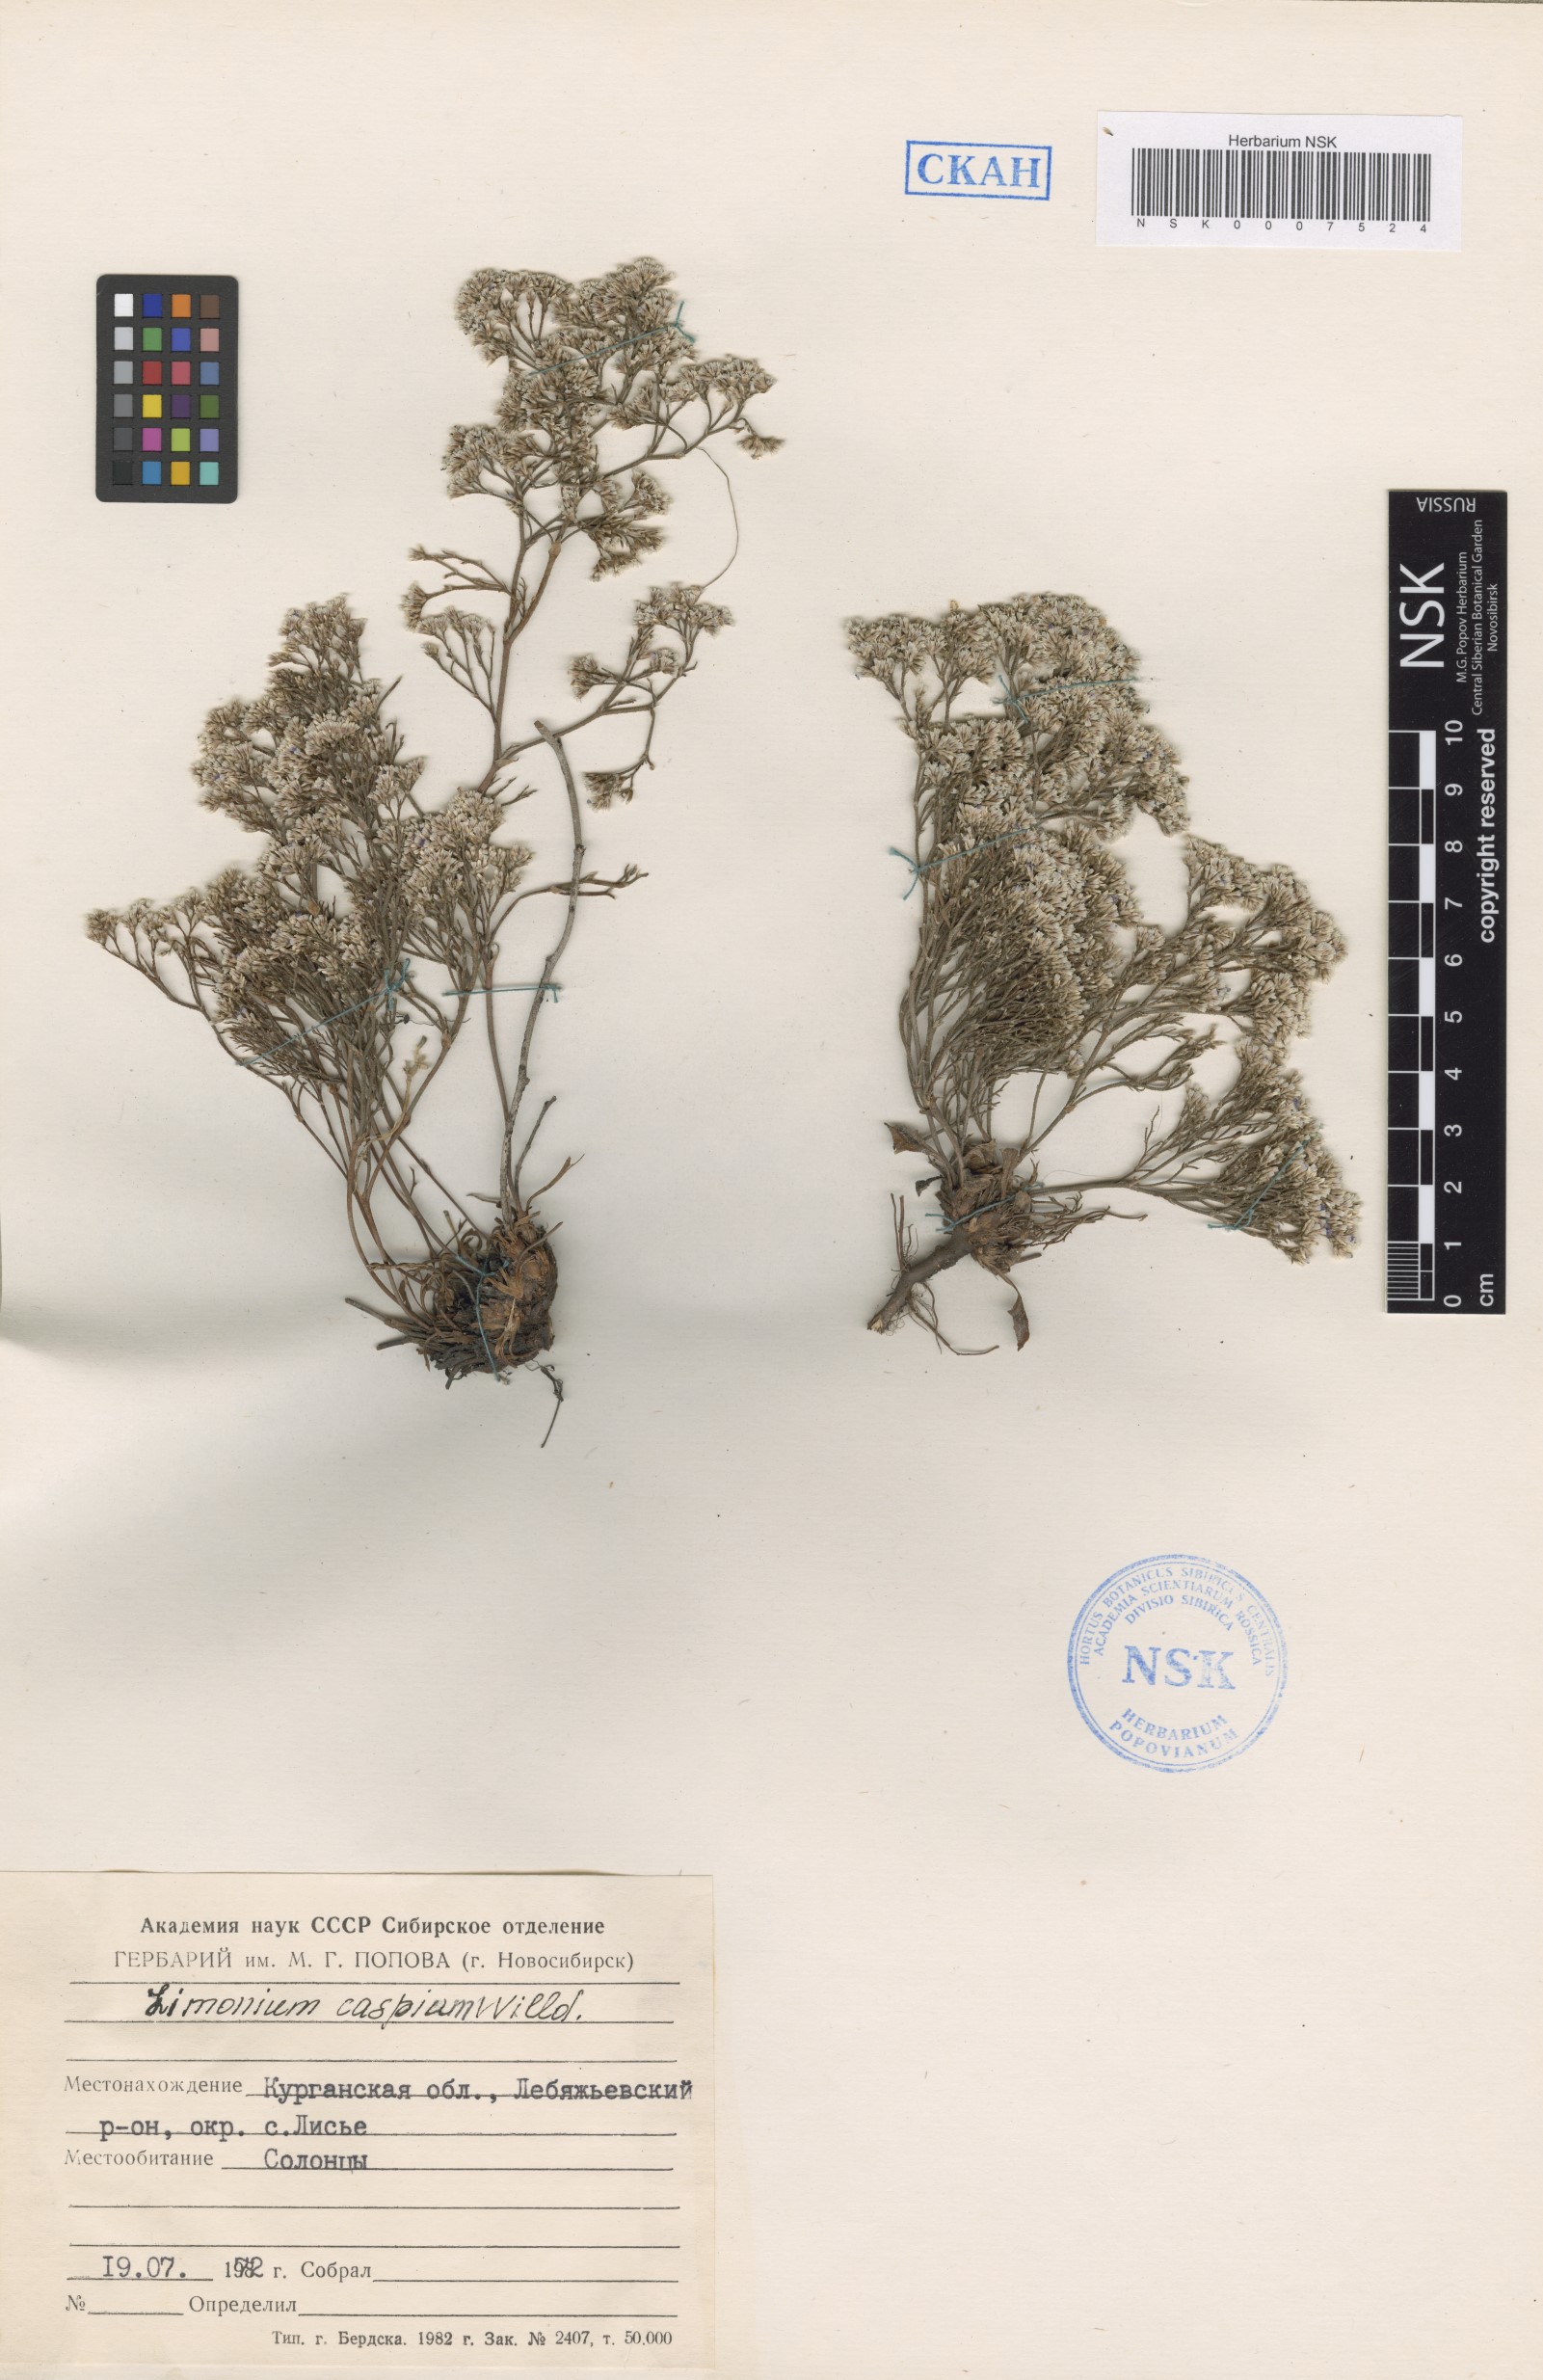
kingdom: Plantae
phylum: Tracheophyta
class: Magnoliopsida
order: Caryophyllales
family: Plumbaginaceae
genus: Limonium
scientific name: Limonium bellidifolium
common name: Matted sea-lavender
